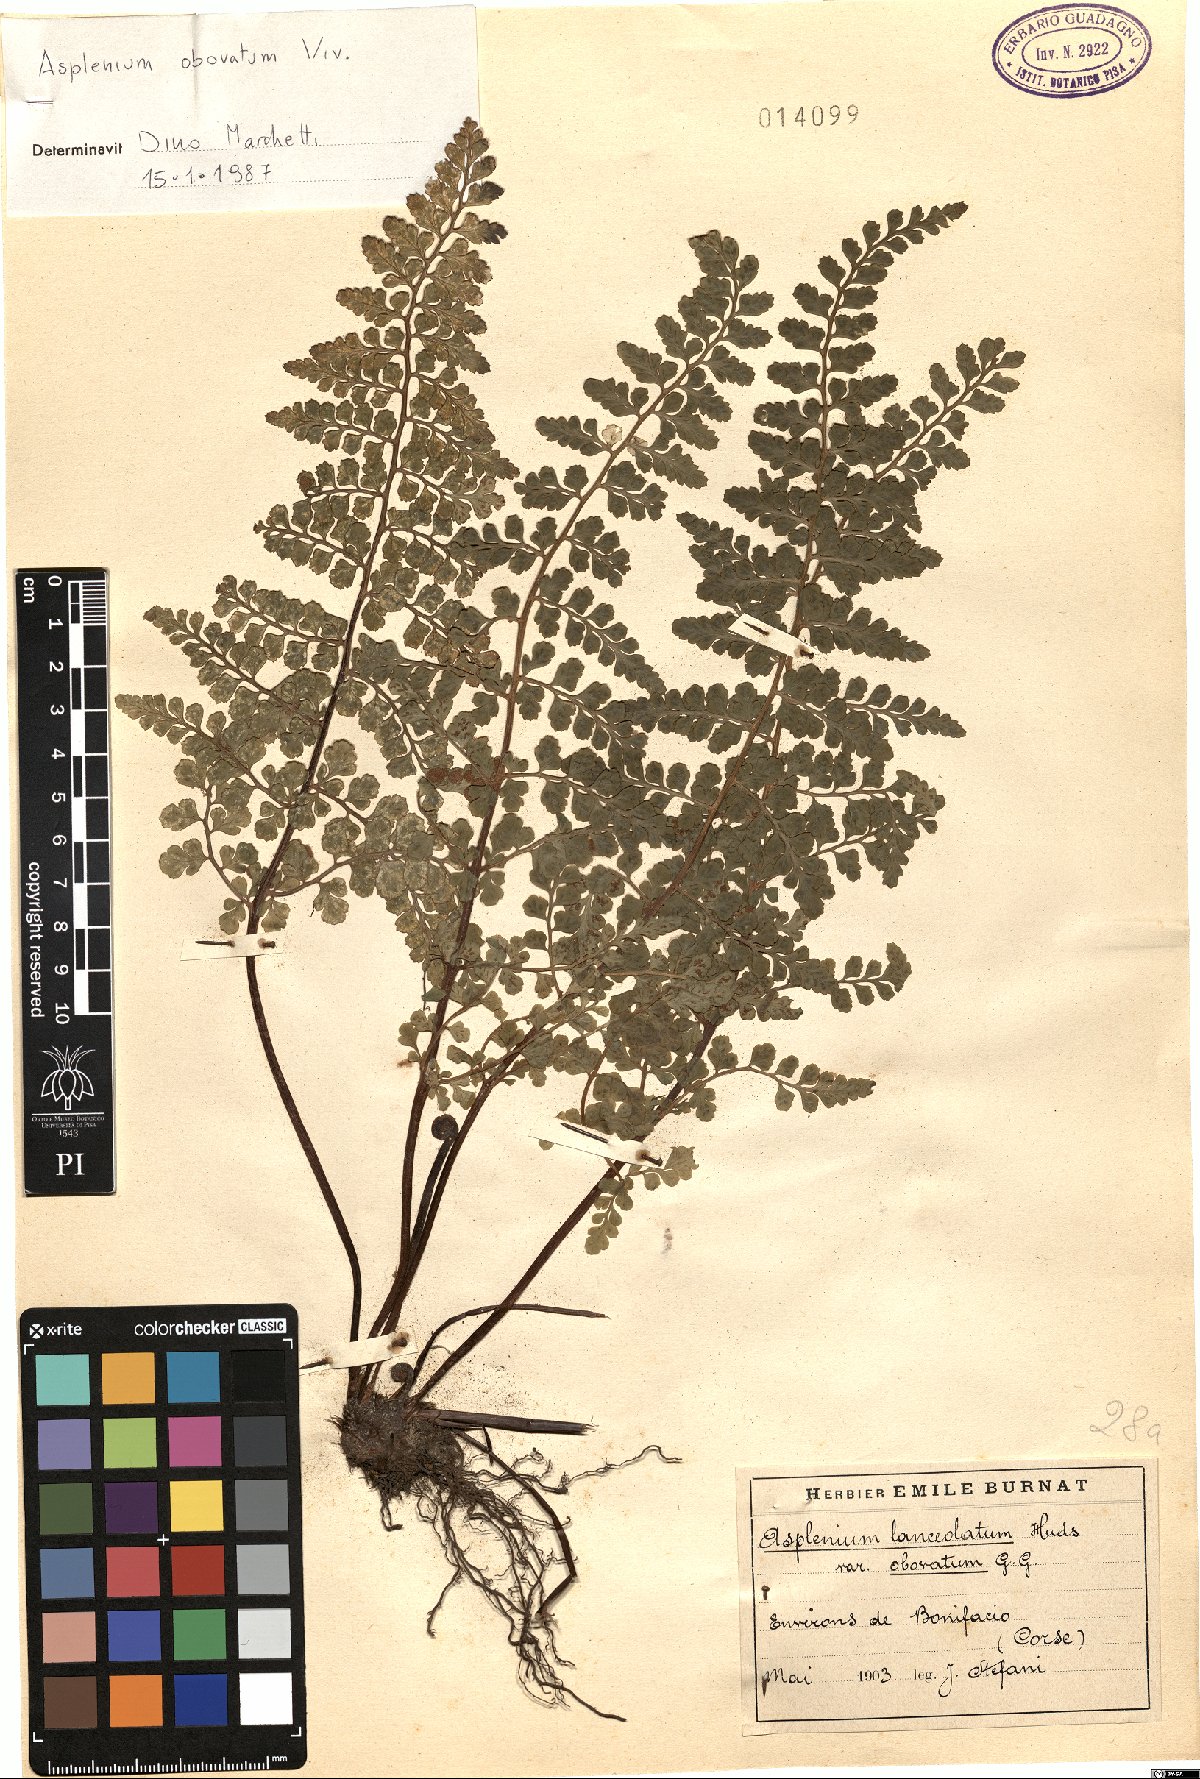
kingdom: Plantae
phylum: Tracheophyta
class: Polypodiopsida
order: Polypodiales
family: Aspleniaceae
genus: Asplenium
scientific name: Asplenium obovatum
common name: Lanceolate spleenwort
